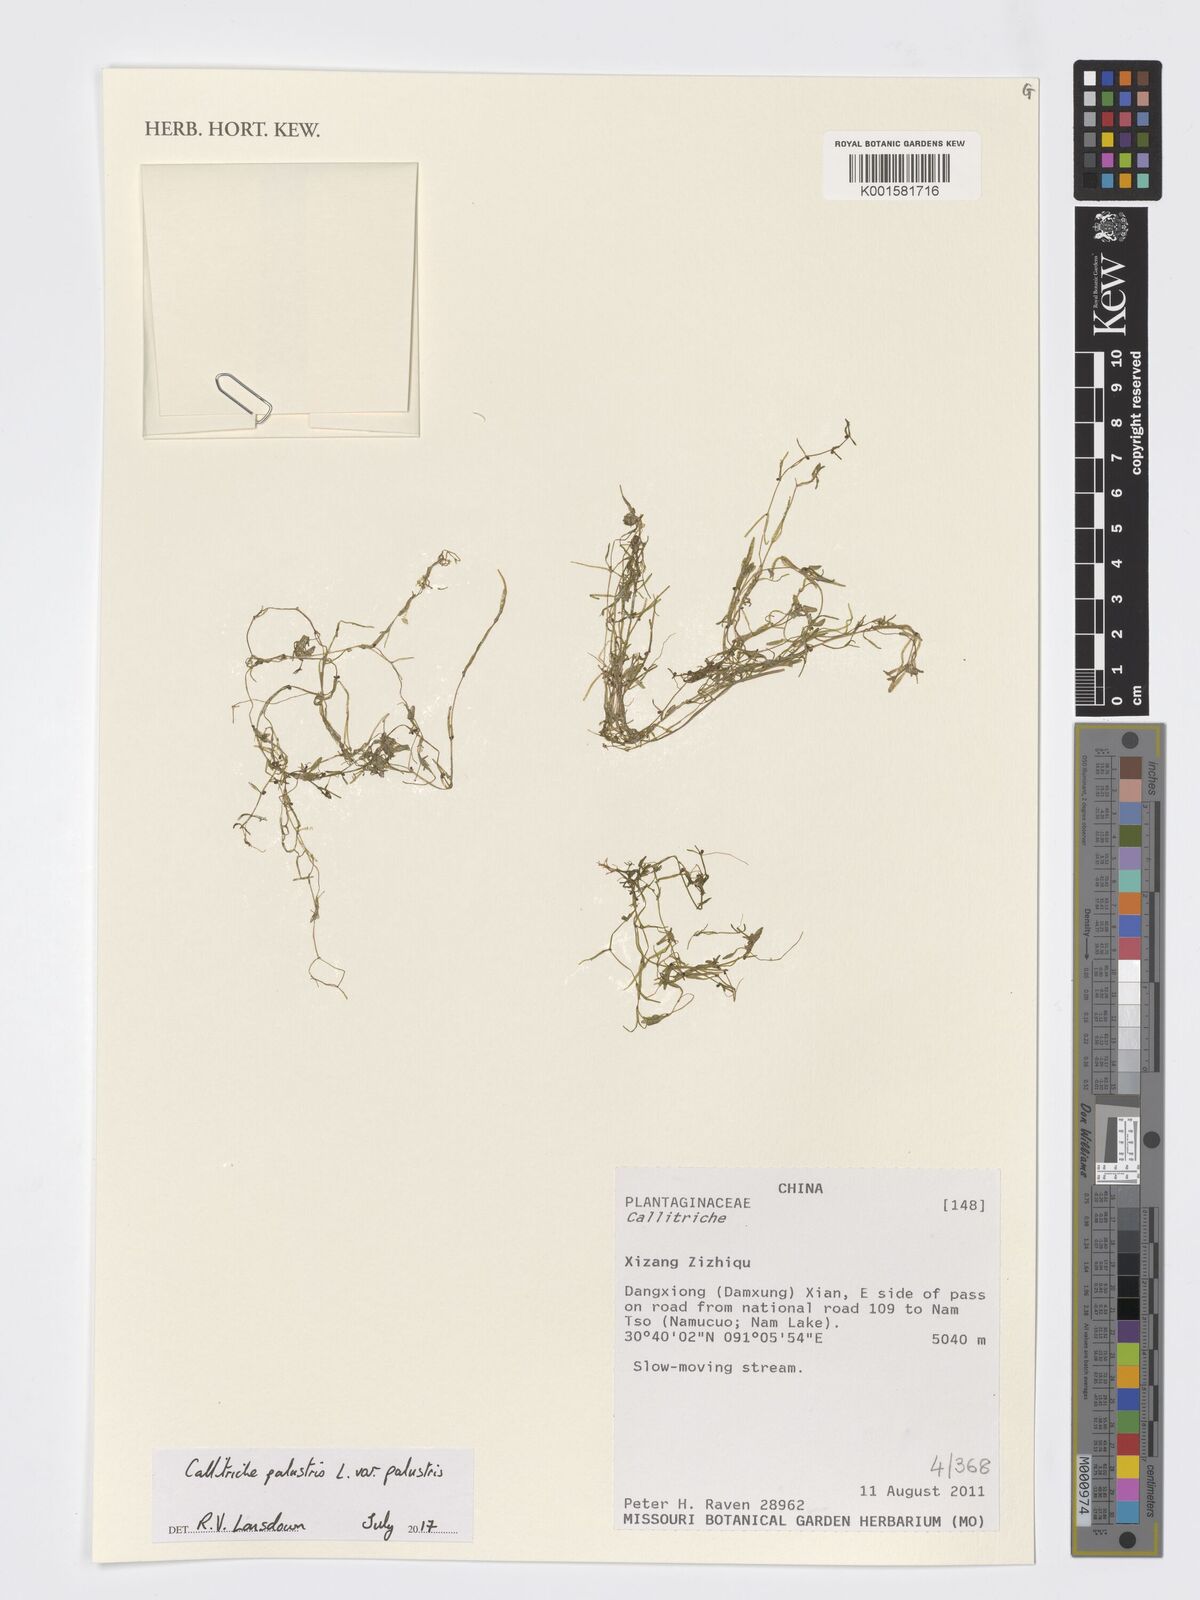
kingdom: Plantae
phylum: Tracheophyta
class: Magnoliopsida
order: Lamiales
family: Plantaginaceae
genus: Callitriche
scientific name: Callitriche palustris
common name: Spring water-starwort
